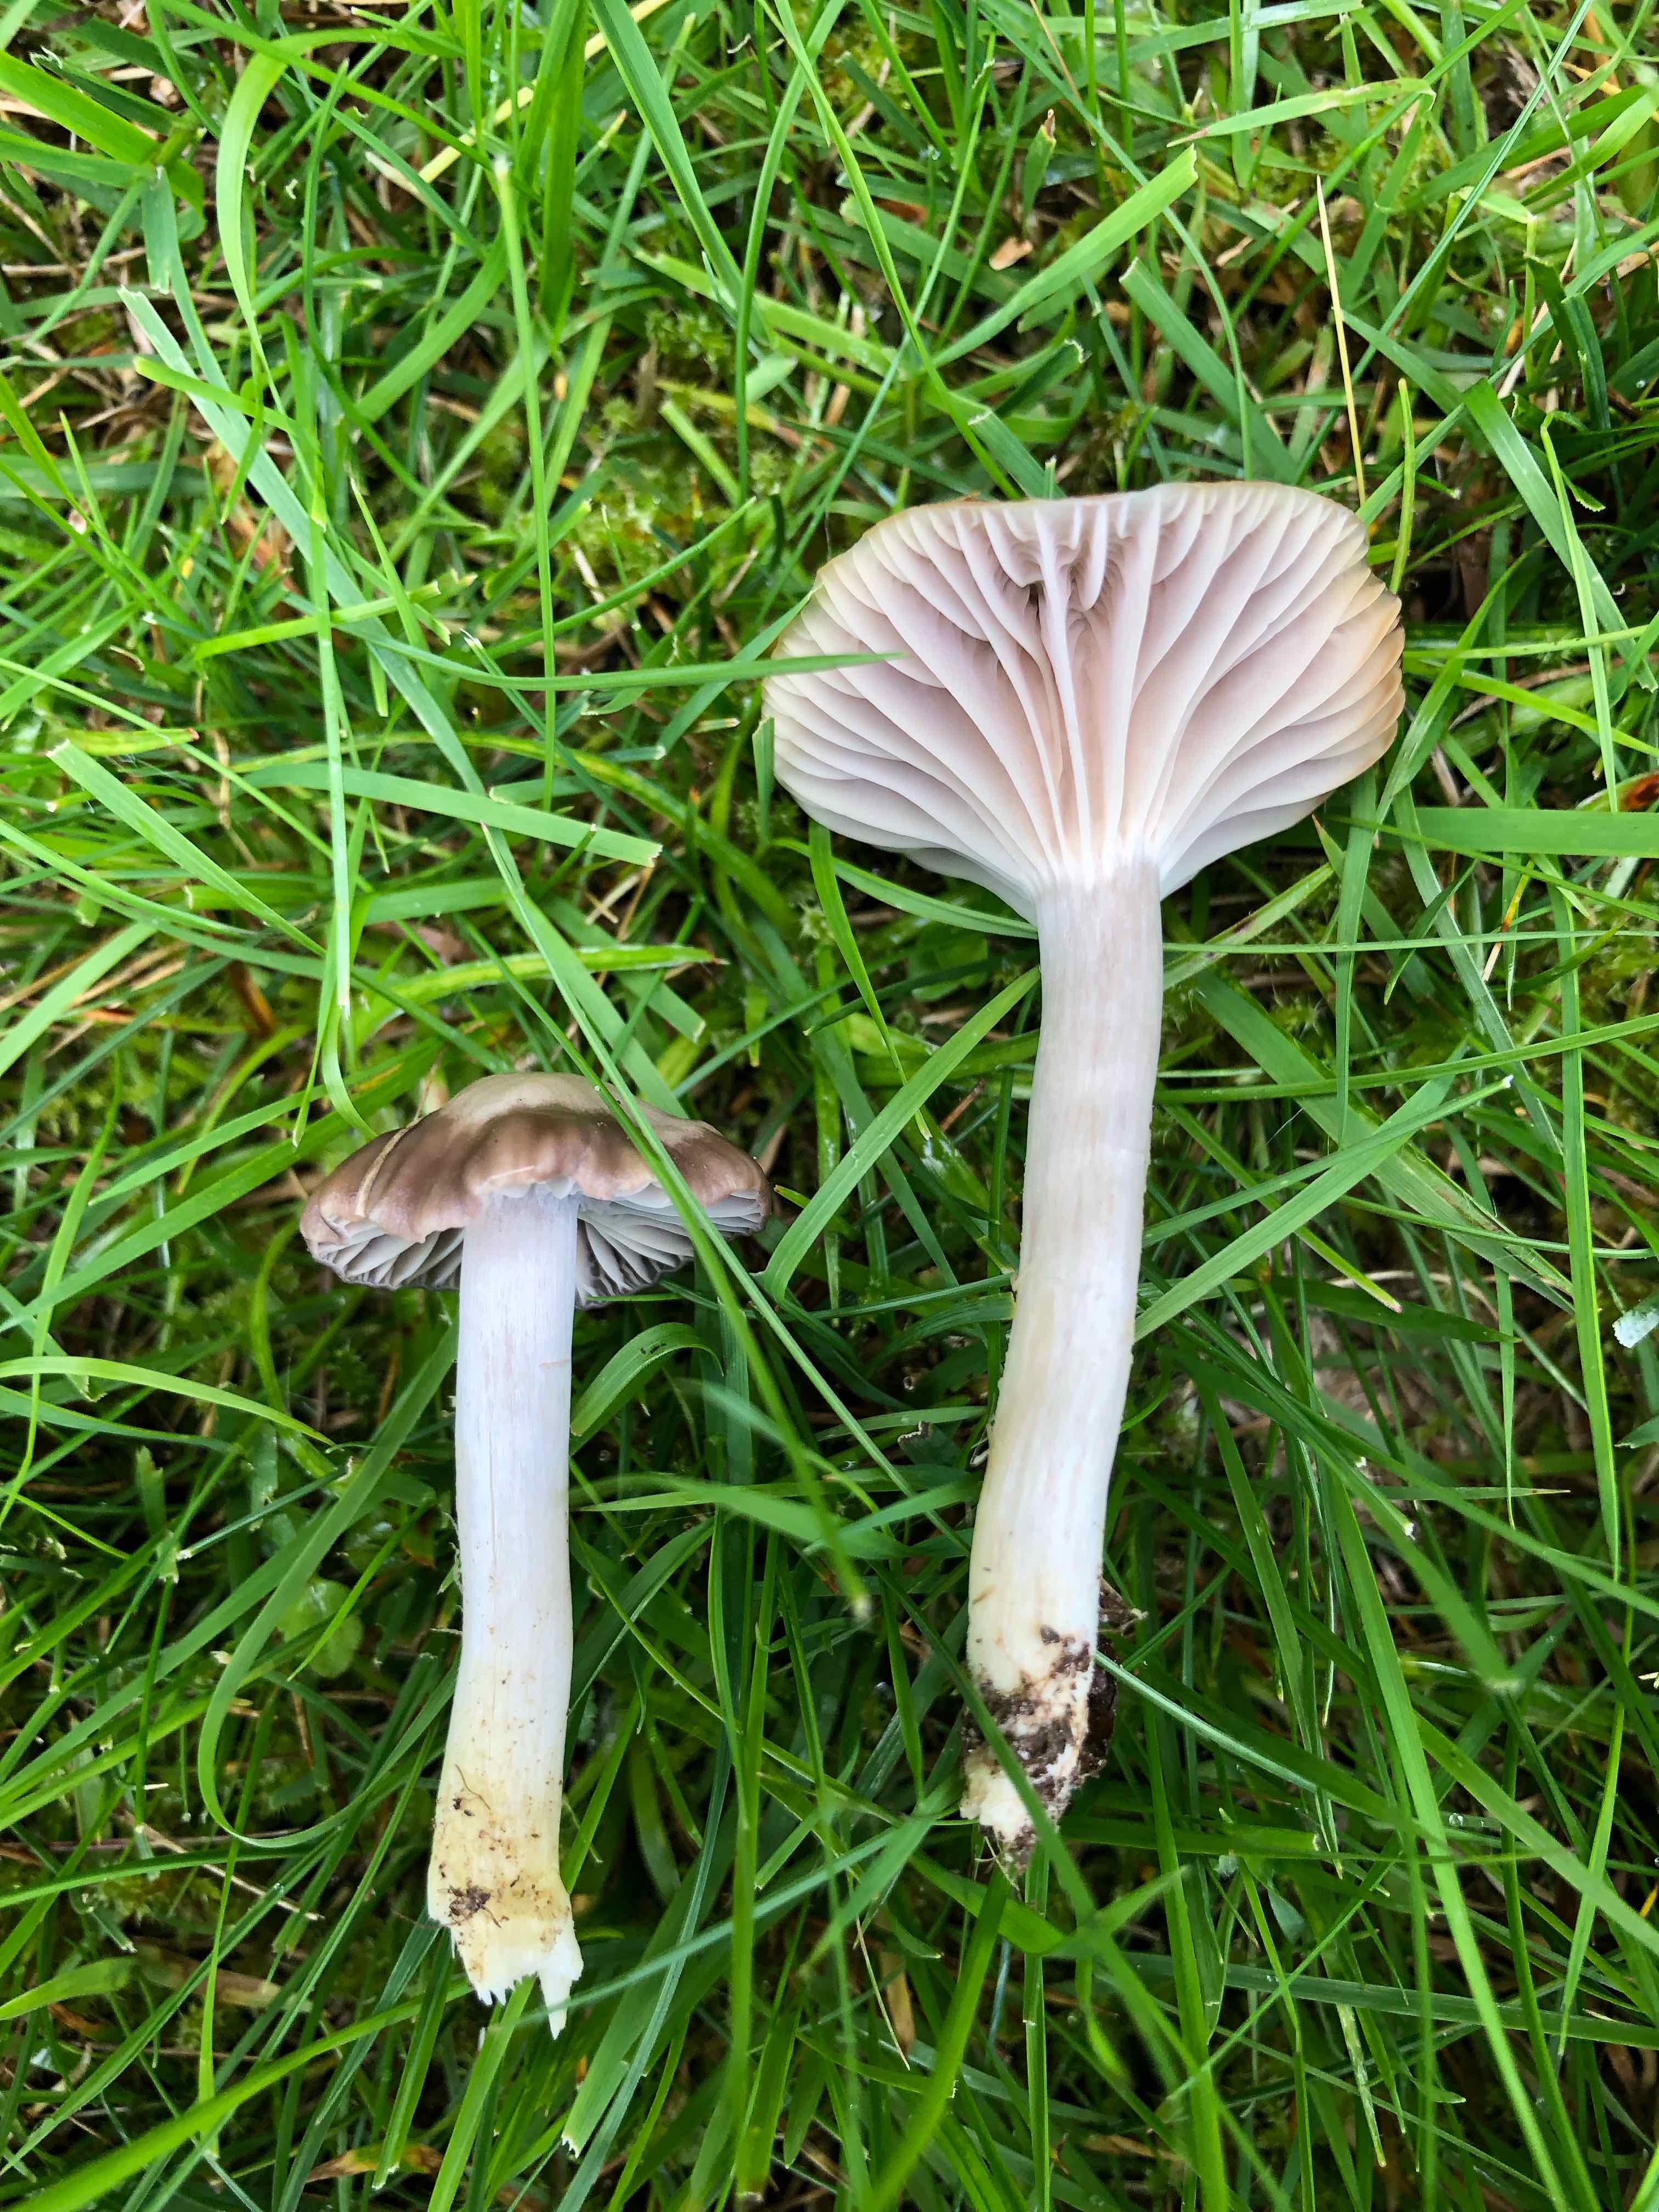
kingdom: Fungi
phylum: Basidiomycota
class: Agaricomycetes
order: Agaricales
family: Hygrophoraceae
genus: Cuphophyllus
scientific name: Cuphophyllus flavipes
